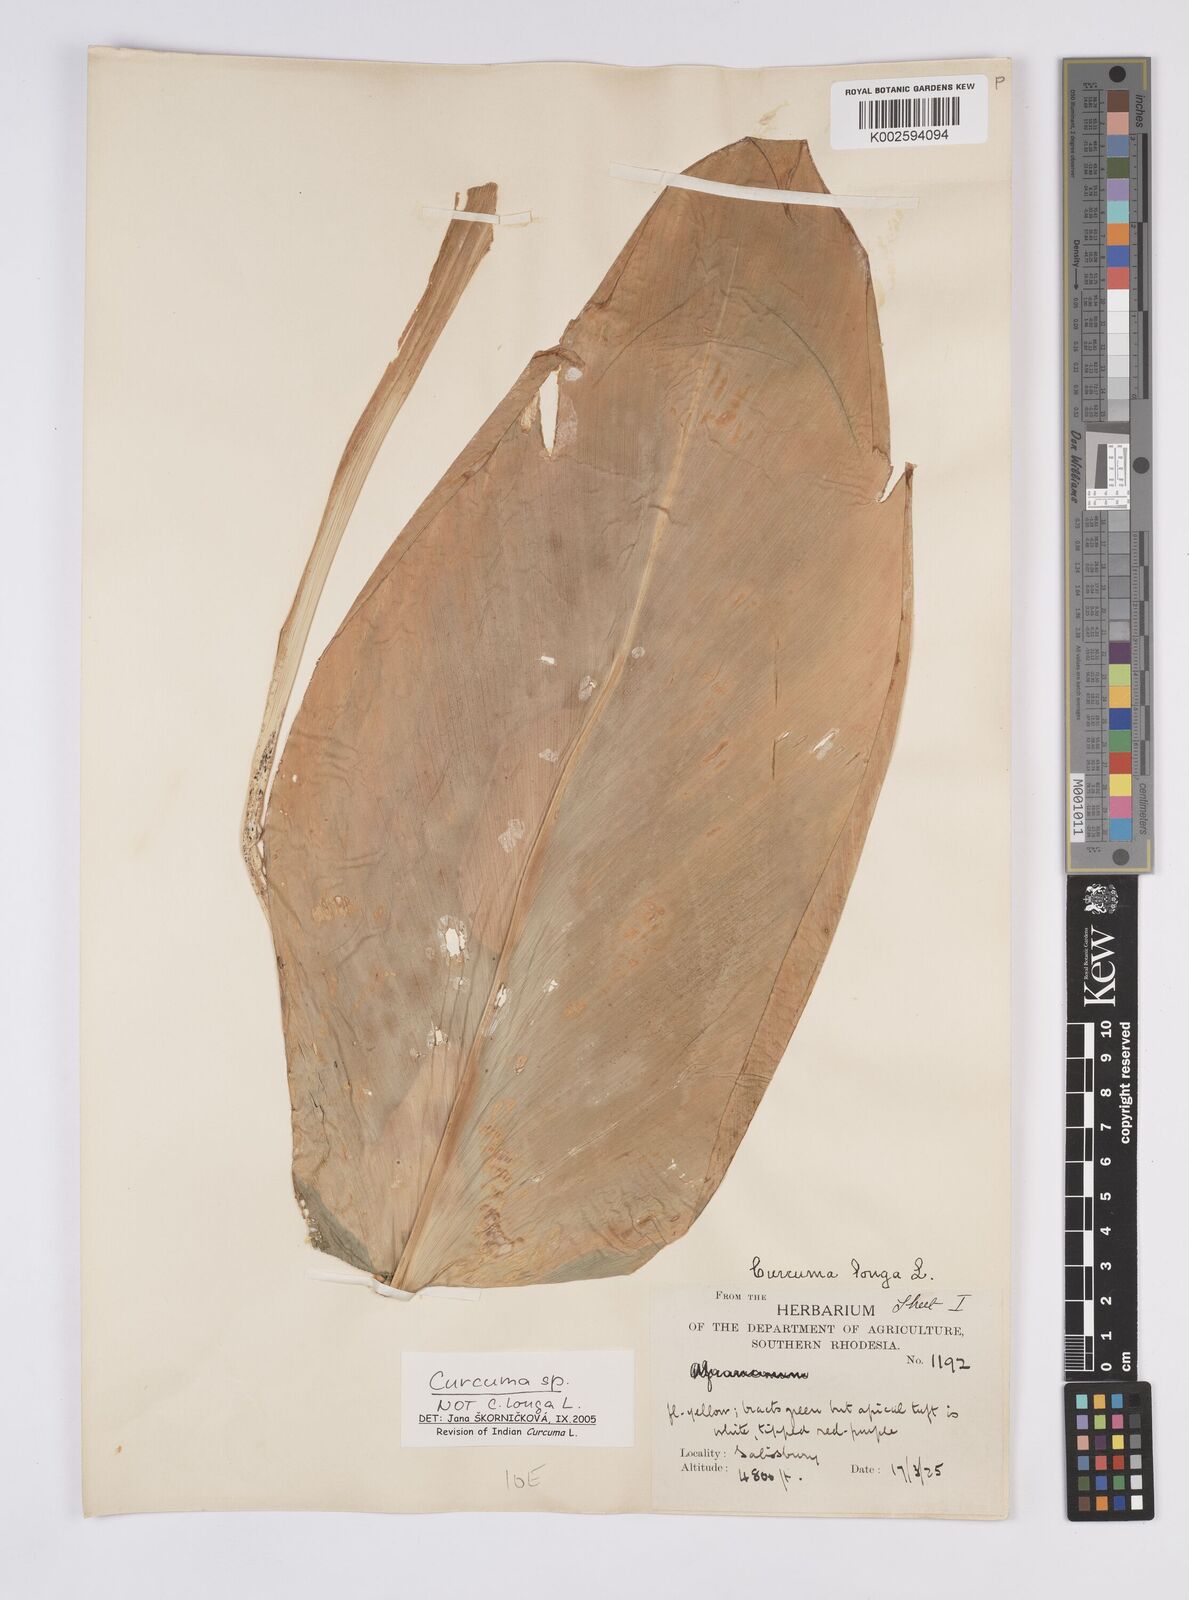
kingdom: Plantae
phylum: Tracheophyta
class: Liliopsida
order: Zingiberales
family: Zingiberaceae
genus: Curcuma
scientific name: Curcuma
